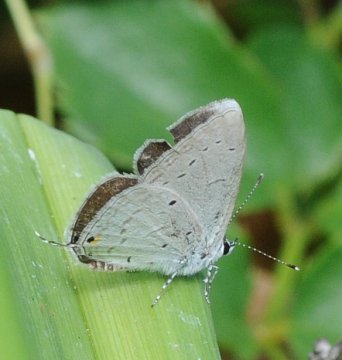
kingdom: Animalia
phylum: Arthropoda
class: Insecta
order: Lepidoptera
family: Lycaenidae
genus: Eicochrysops
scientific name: Eicochrysops hippocrates
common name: White-tipped Blue
